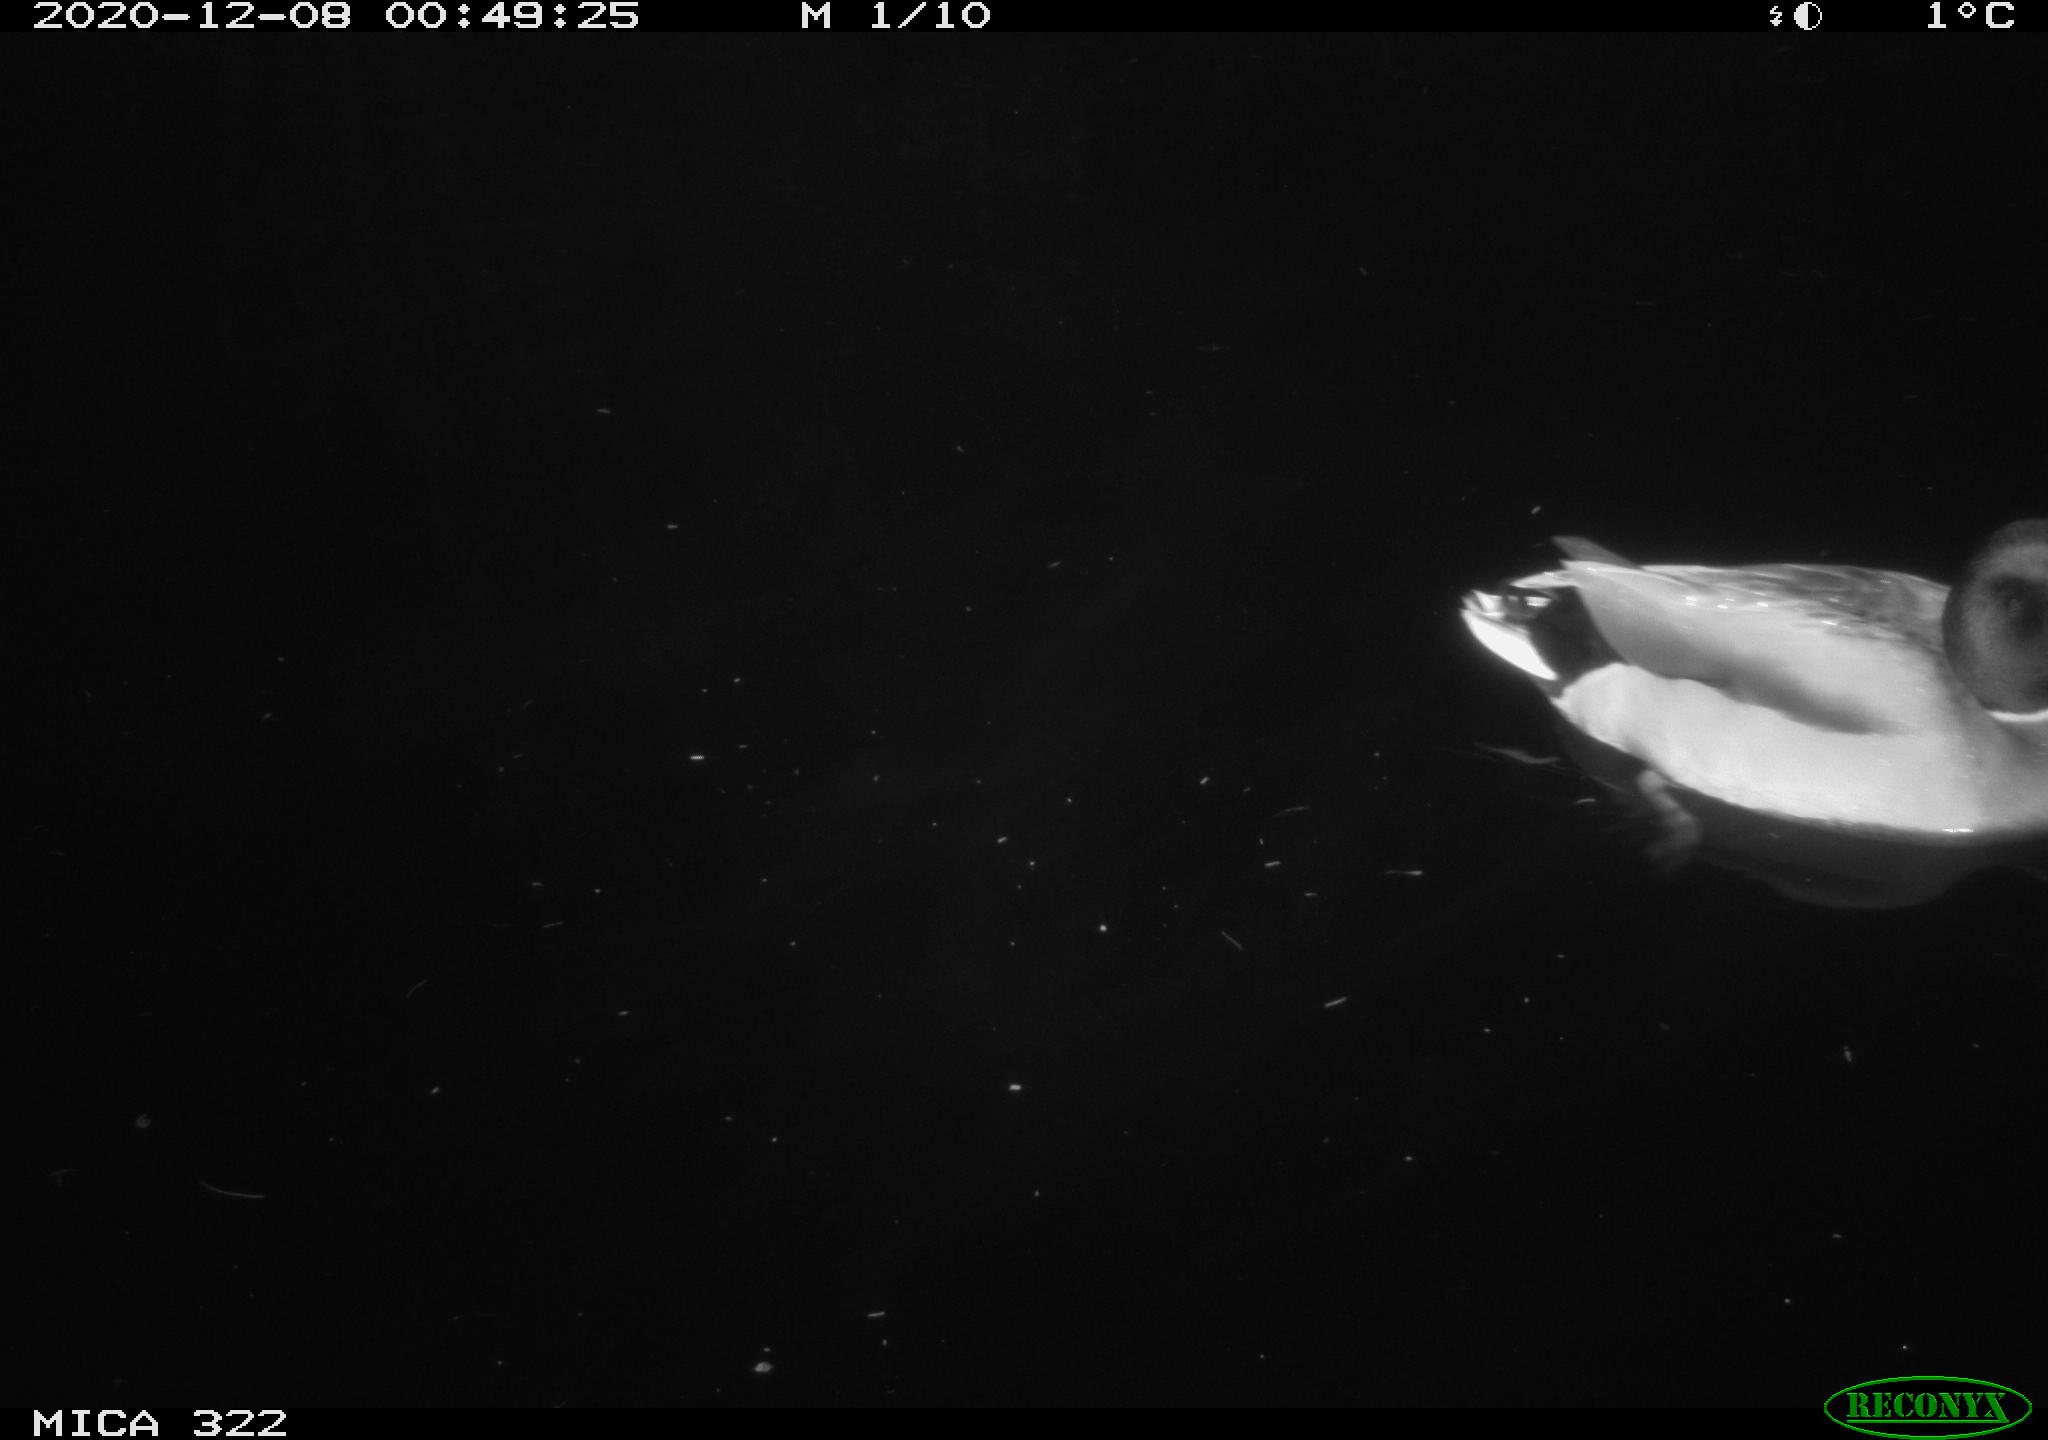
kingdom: Animalia
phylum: Chordata
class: Aves
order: Anseriformes
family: Anatidae
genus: Anas
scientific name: Anas platyrhynchos
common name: Mallard
